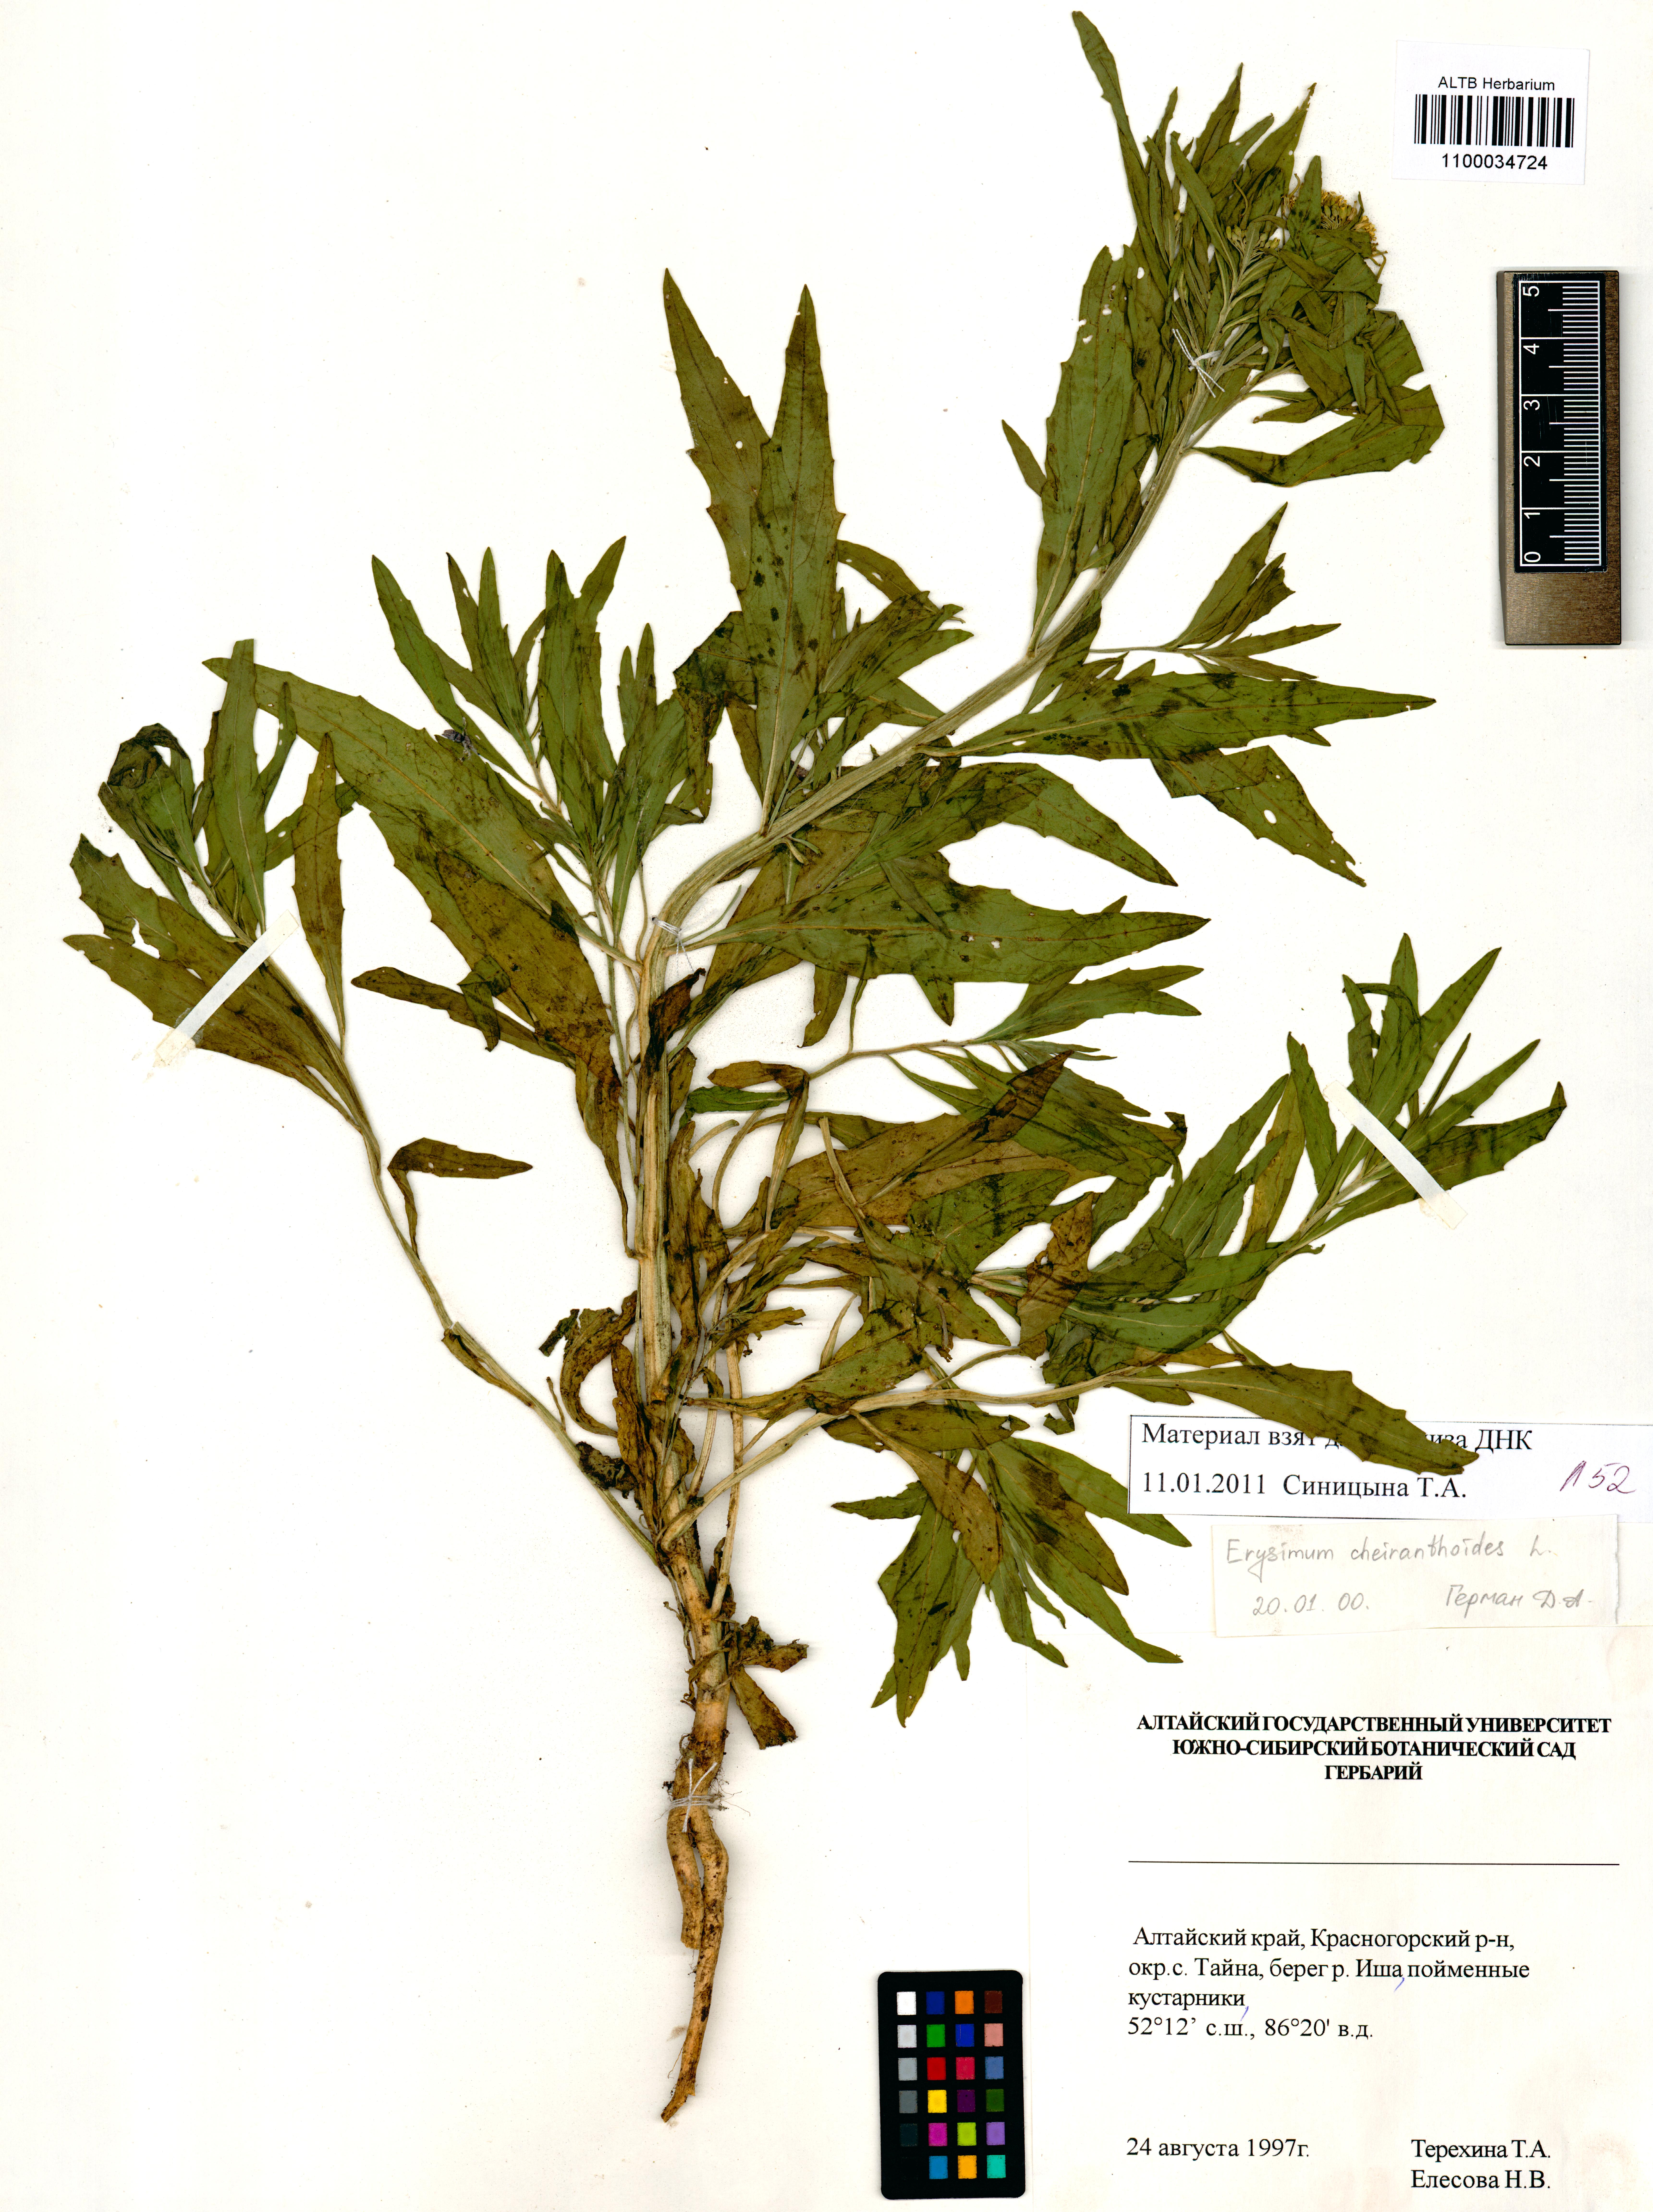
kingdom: Plantae
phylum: Tracheophyta
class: Magnoliopsida
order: Brassicales
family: Brassicaceae
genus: Erysimum
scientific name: Erysimum cheiranthoides
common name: Treacle mustard
